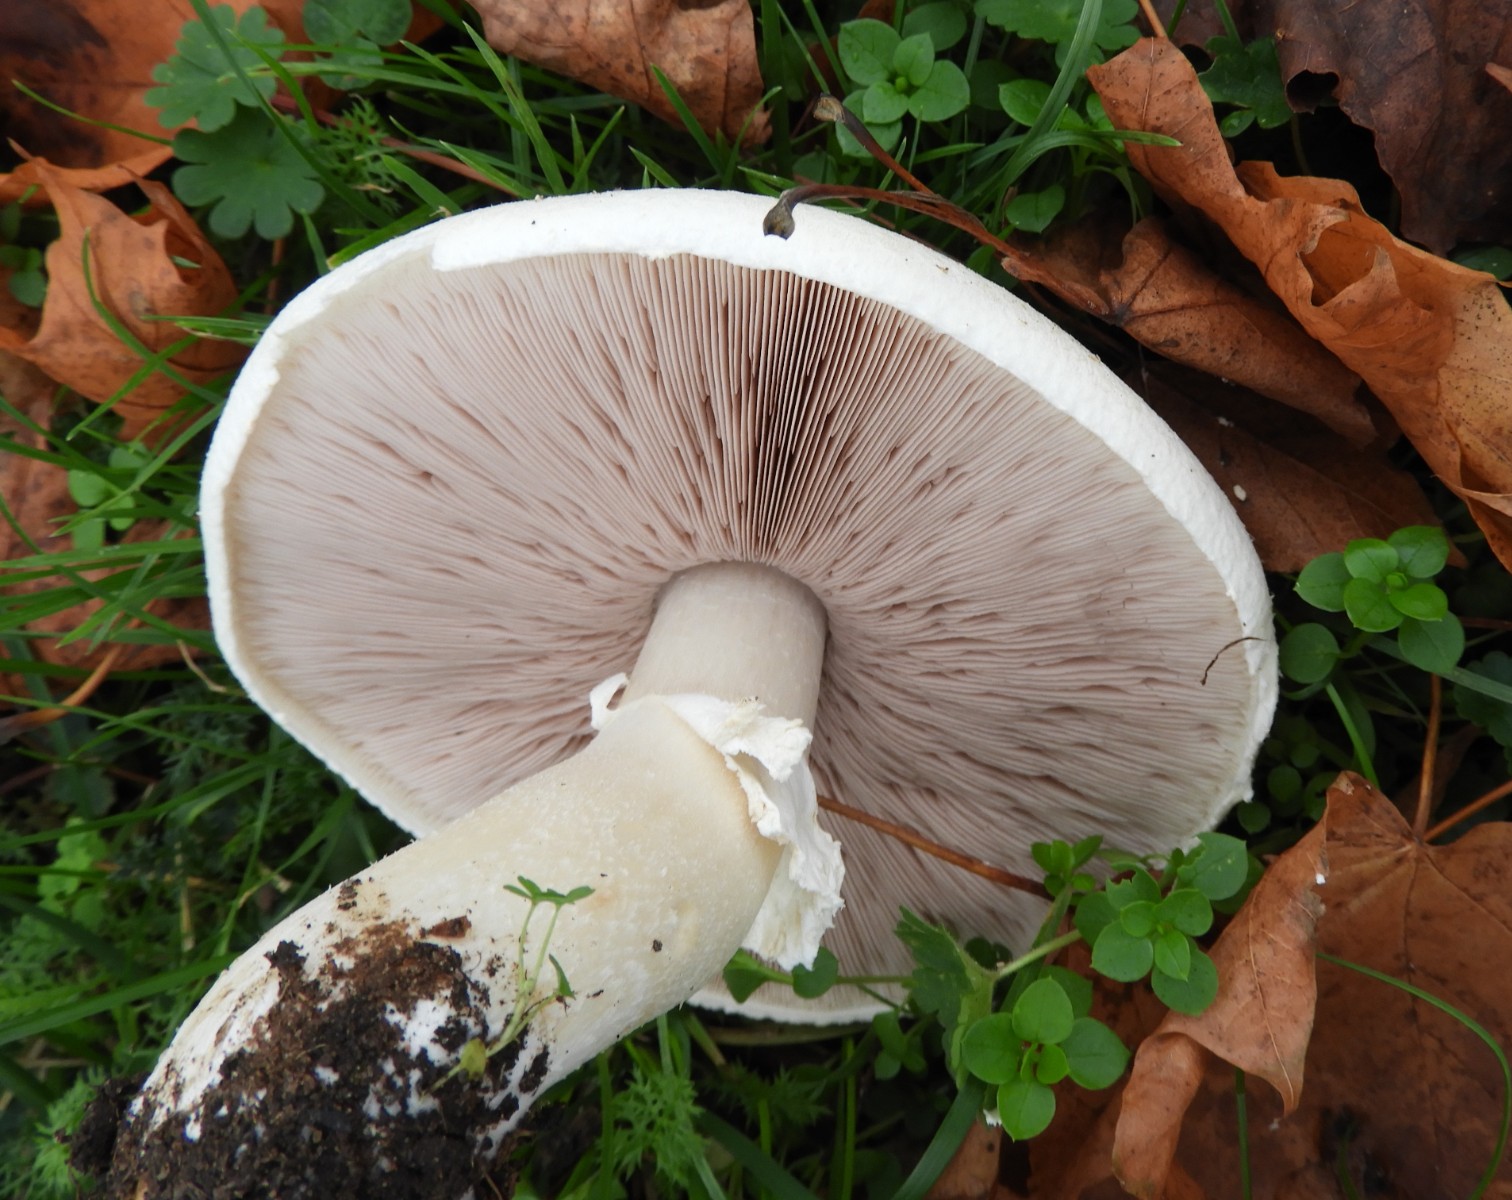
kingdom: Fungi
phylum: Basidiomycota
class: Agaricomycetes
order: Agaricales
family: Agaricaceae
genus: Agaricus
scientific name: Agaricus arvensis
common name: ager-champignon
